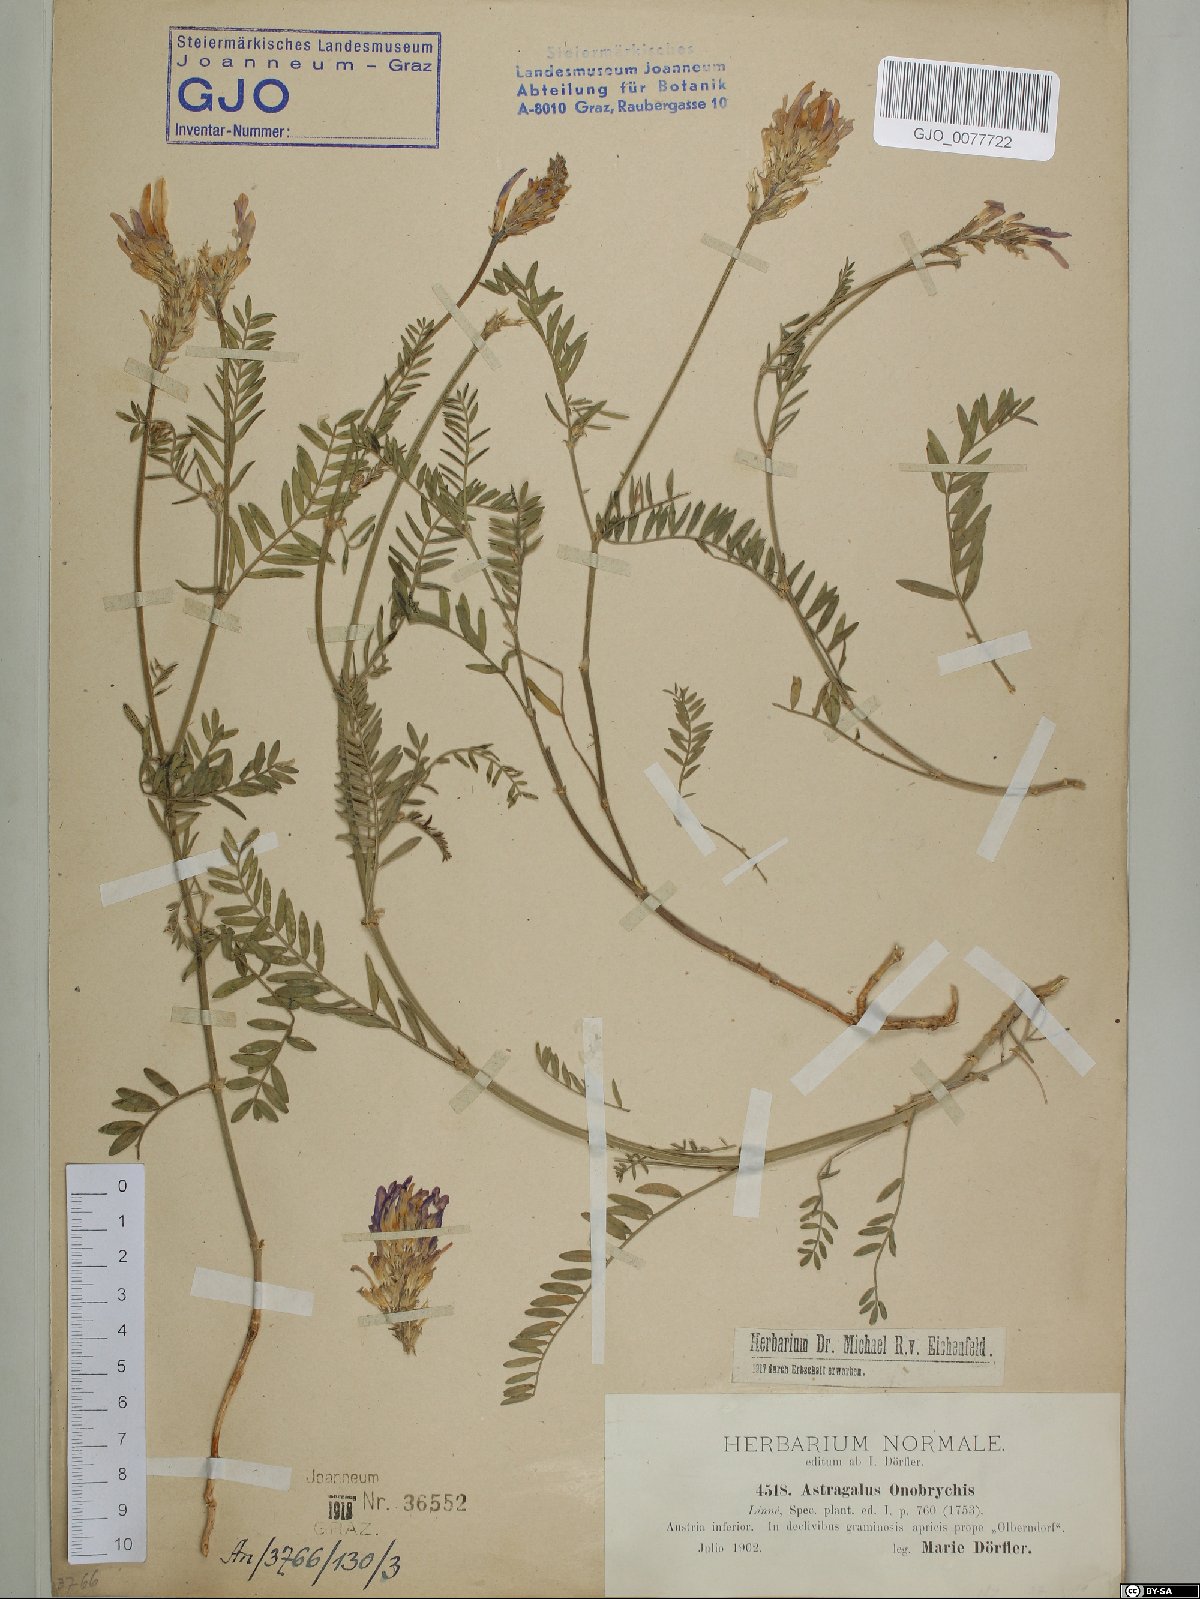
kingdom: Plantae
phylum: Tracheophyta
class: Magnoliopsida
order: Fabales
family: Fabaceae
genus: Astragalus
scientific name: Astragalus onobrychis
